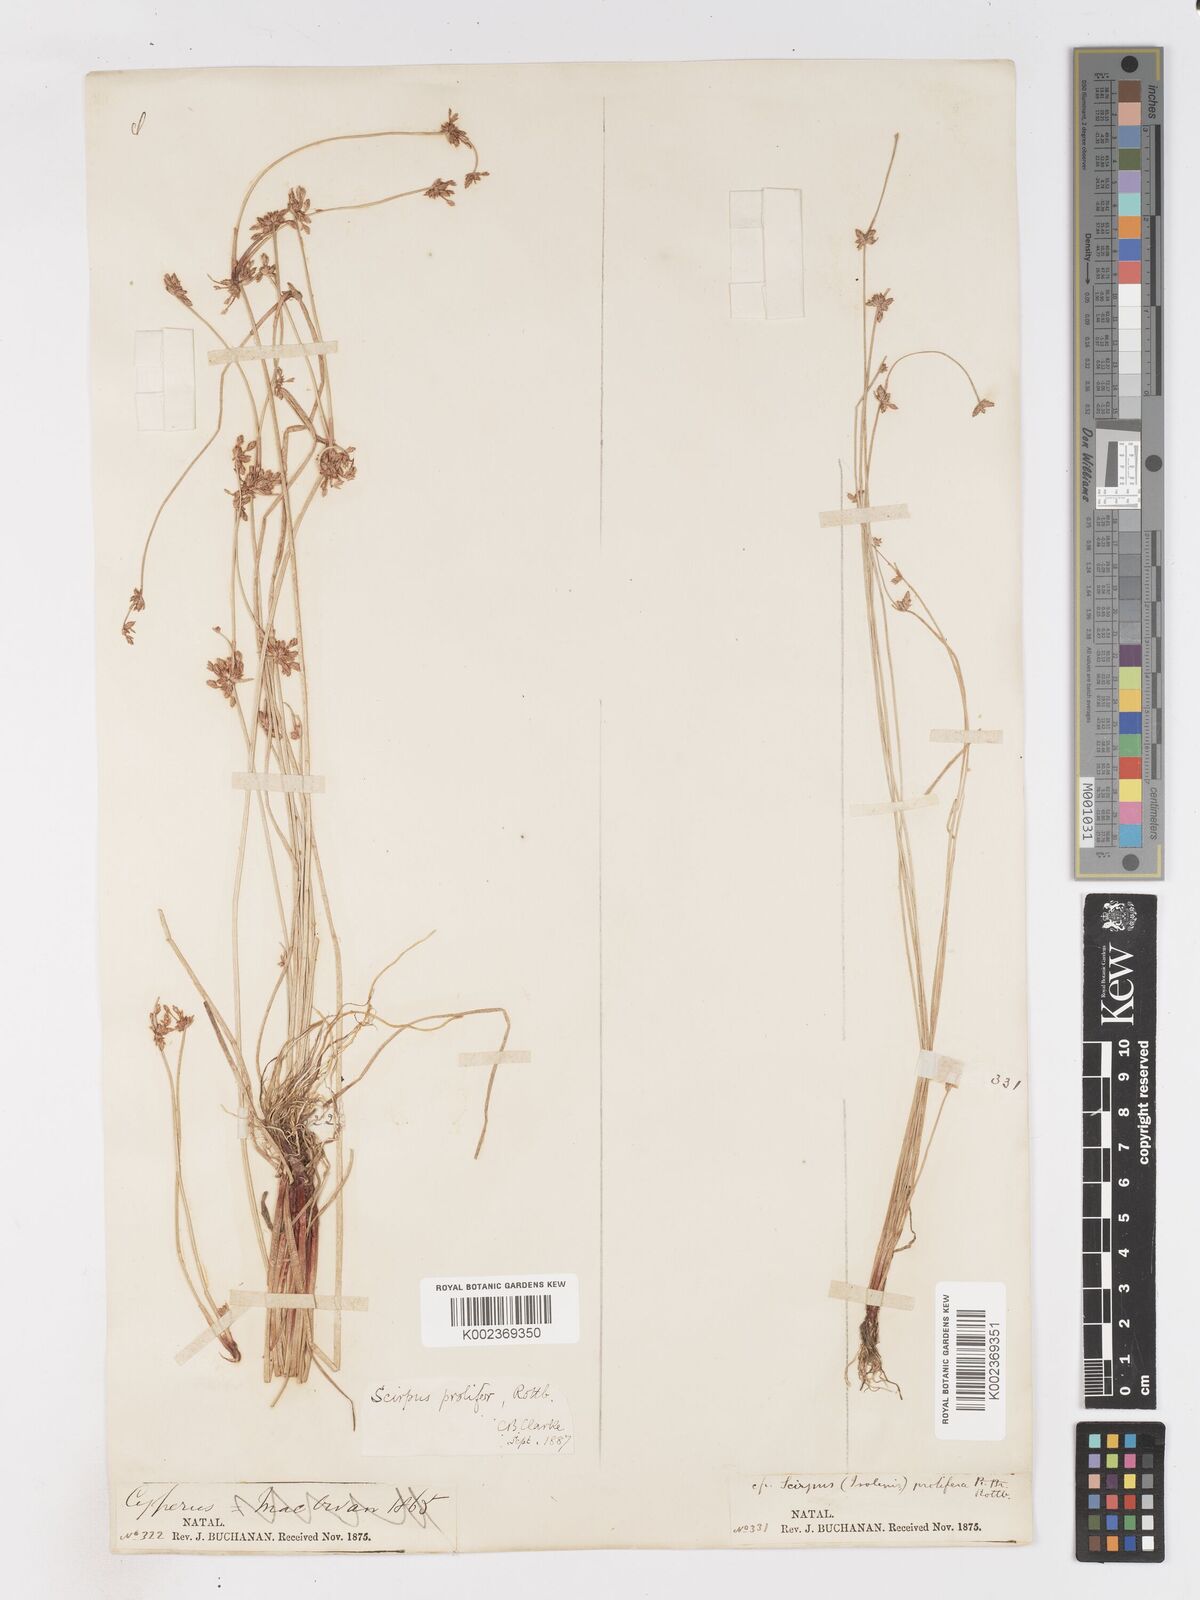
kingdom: Plantae
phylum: Tracheophyta
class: Liliopsida
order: Poales
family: Cyperaceae
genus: Isolepis
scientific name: Isolepis prolifera
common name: Proliferating bulrush
